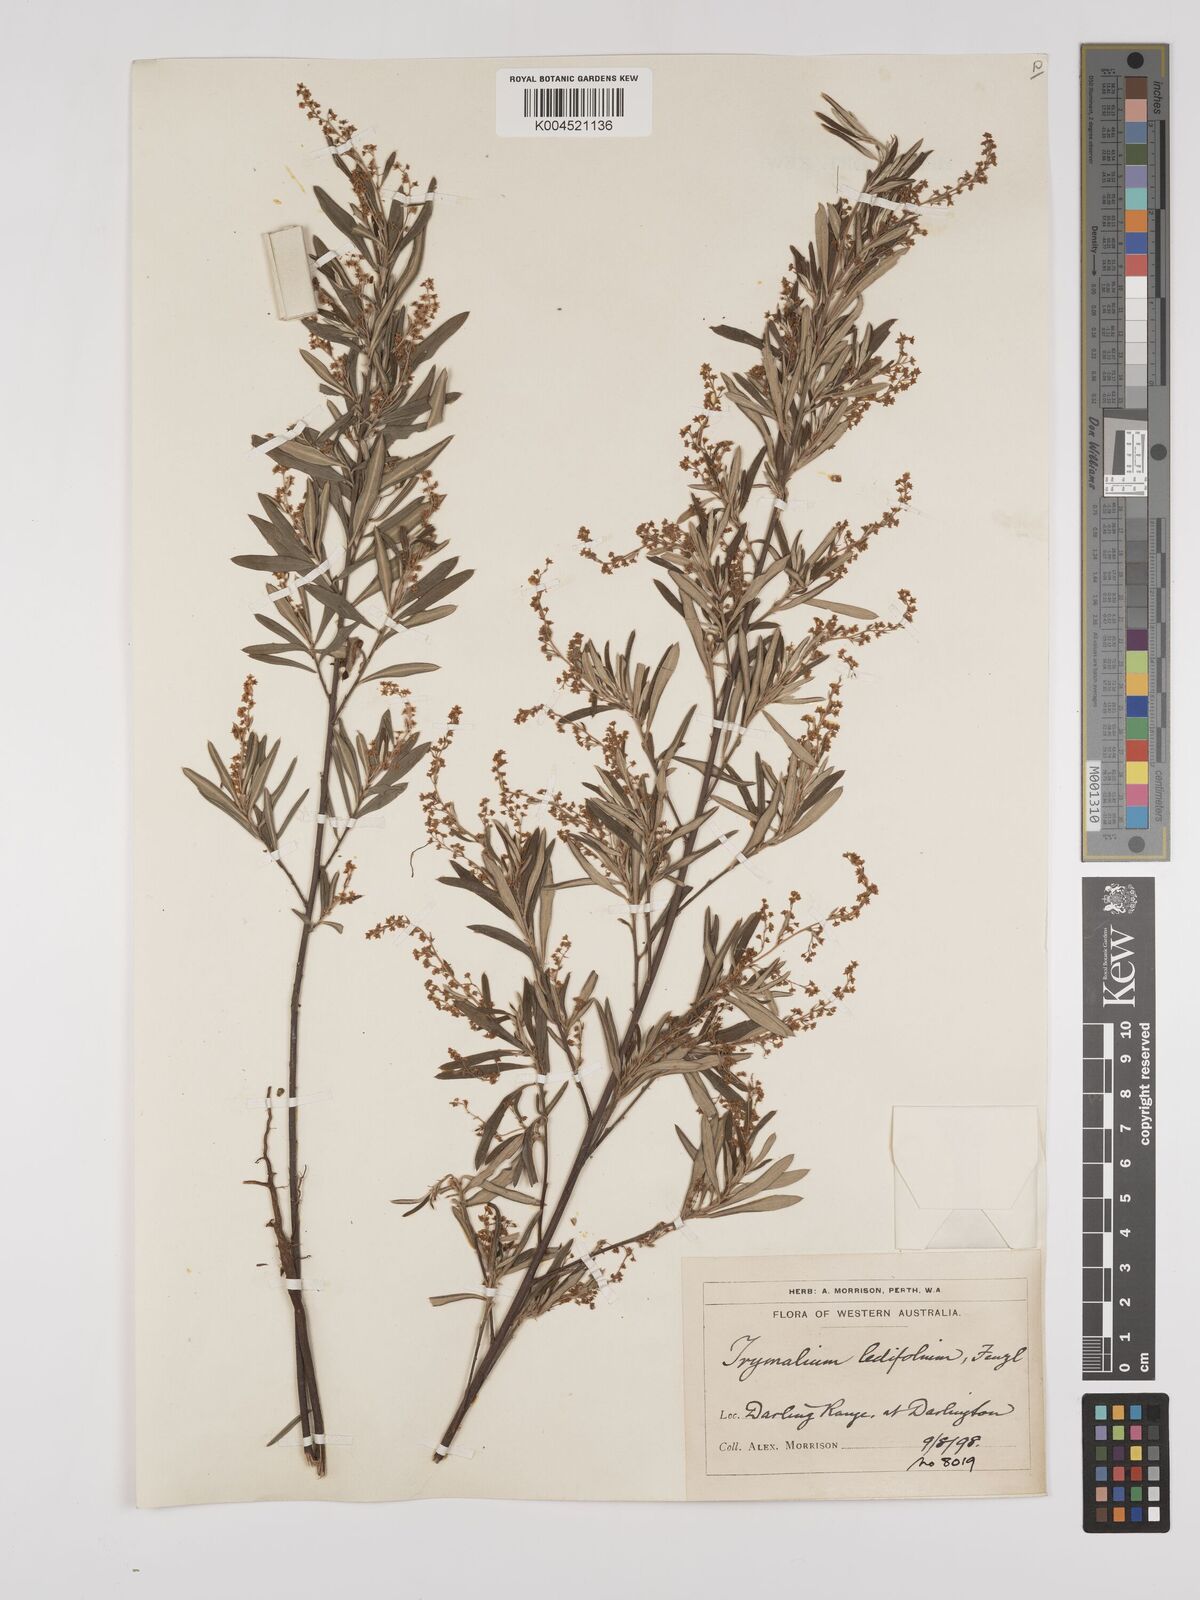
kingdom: Plantae
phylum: Tracheophyta
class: Magnoliopsida
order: Rosales
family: Rhamnaceae
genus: Trymalium
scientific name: Trymalium ledifolium
